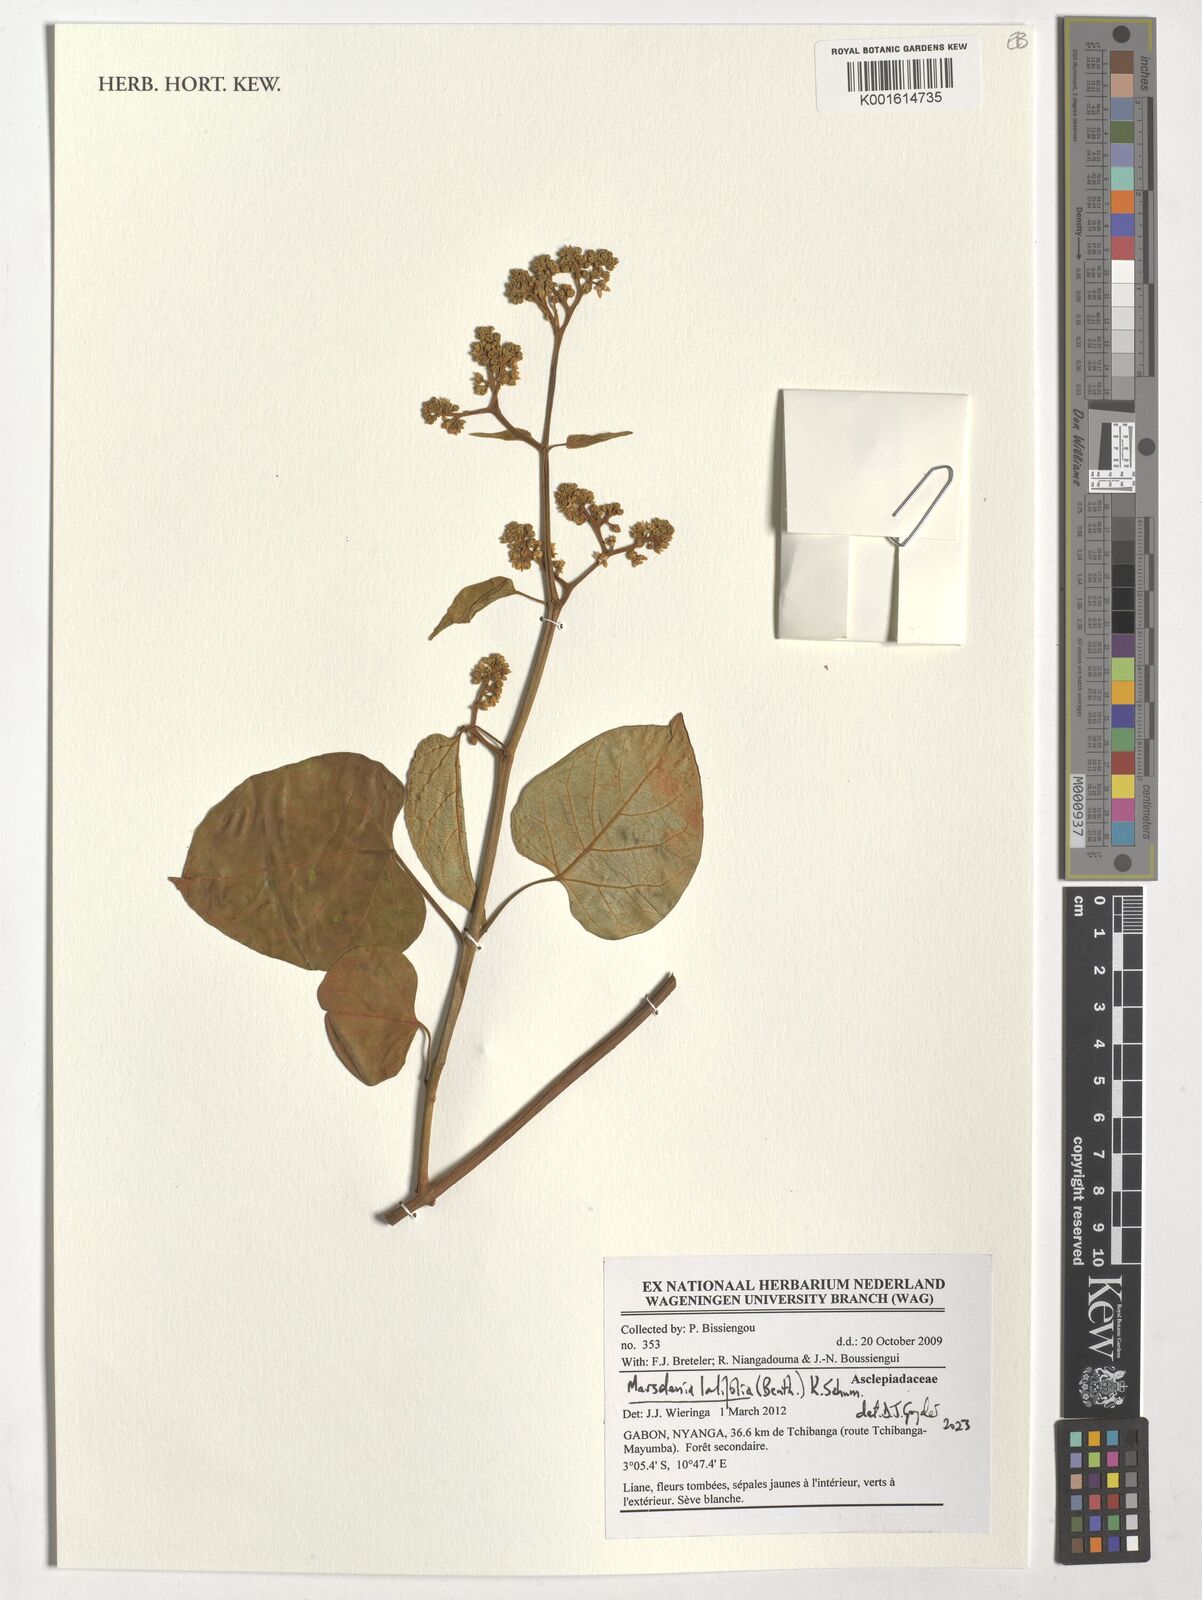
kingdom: Plantae
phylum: Tracheophyta
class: Magnoliopsida
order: Gentianales
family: Apocynaceae
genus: Gongronemopsis
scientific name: Gongronemopsis latifolia
